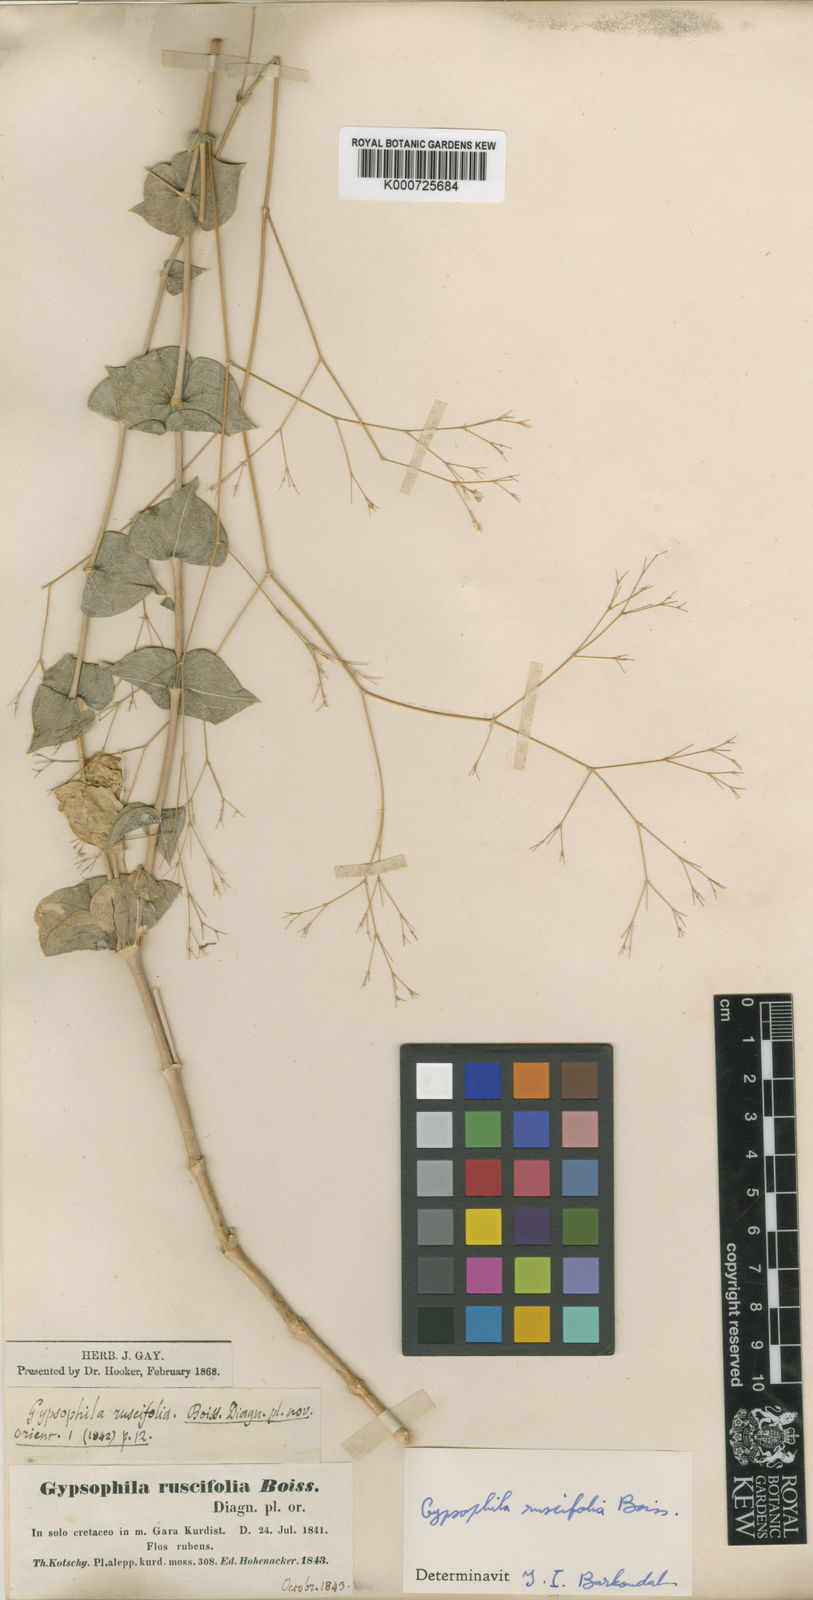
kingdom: Plantae
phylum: Tracheophyta
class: Magnoliopsida
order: Caryophyllales
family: Caryophyllaceae
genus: Gypsophila
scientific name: Gypsophila ruscifolia
